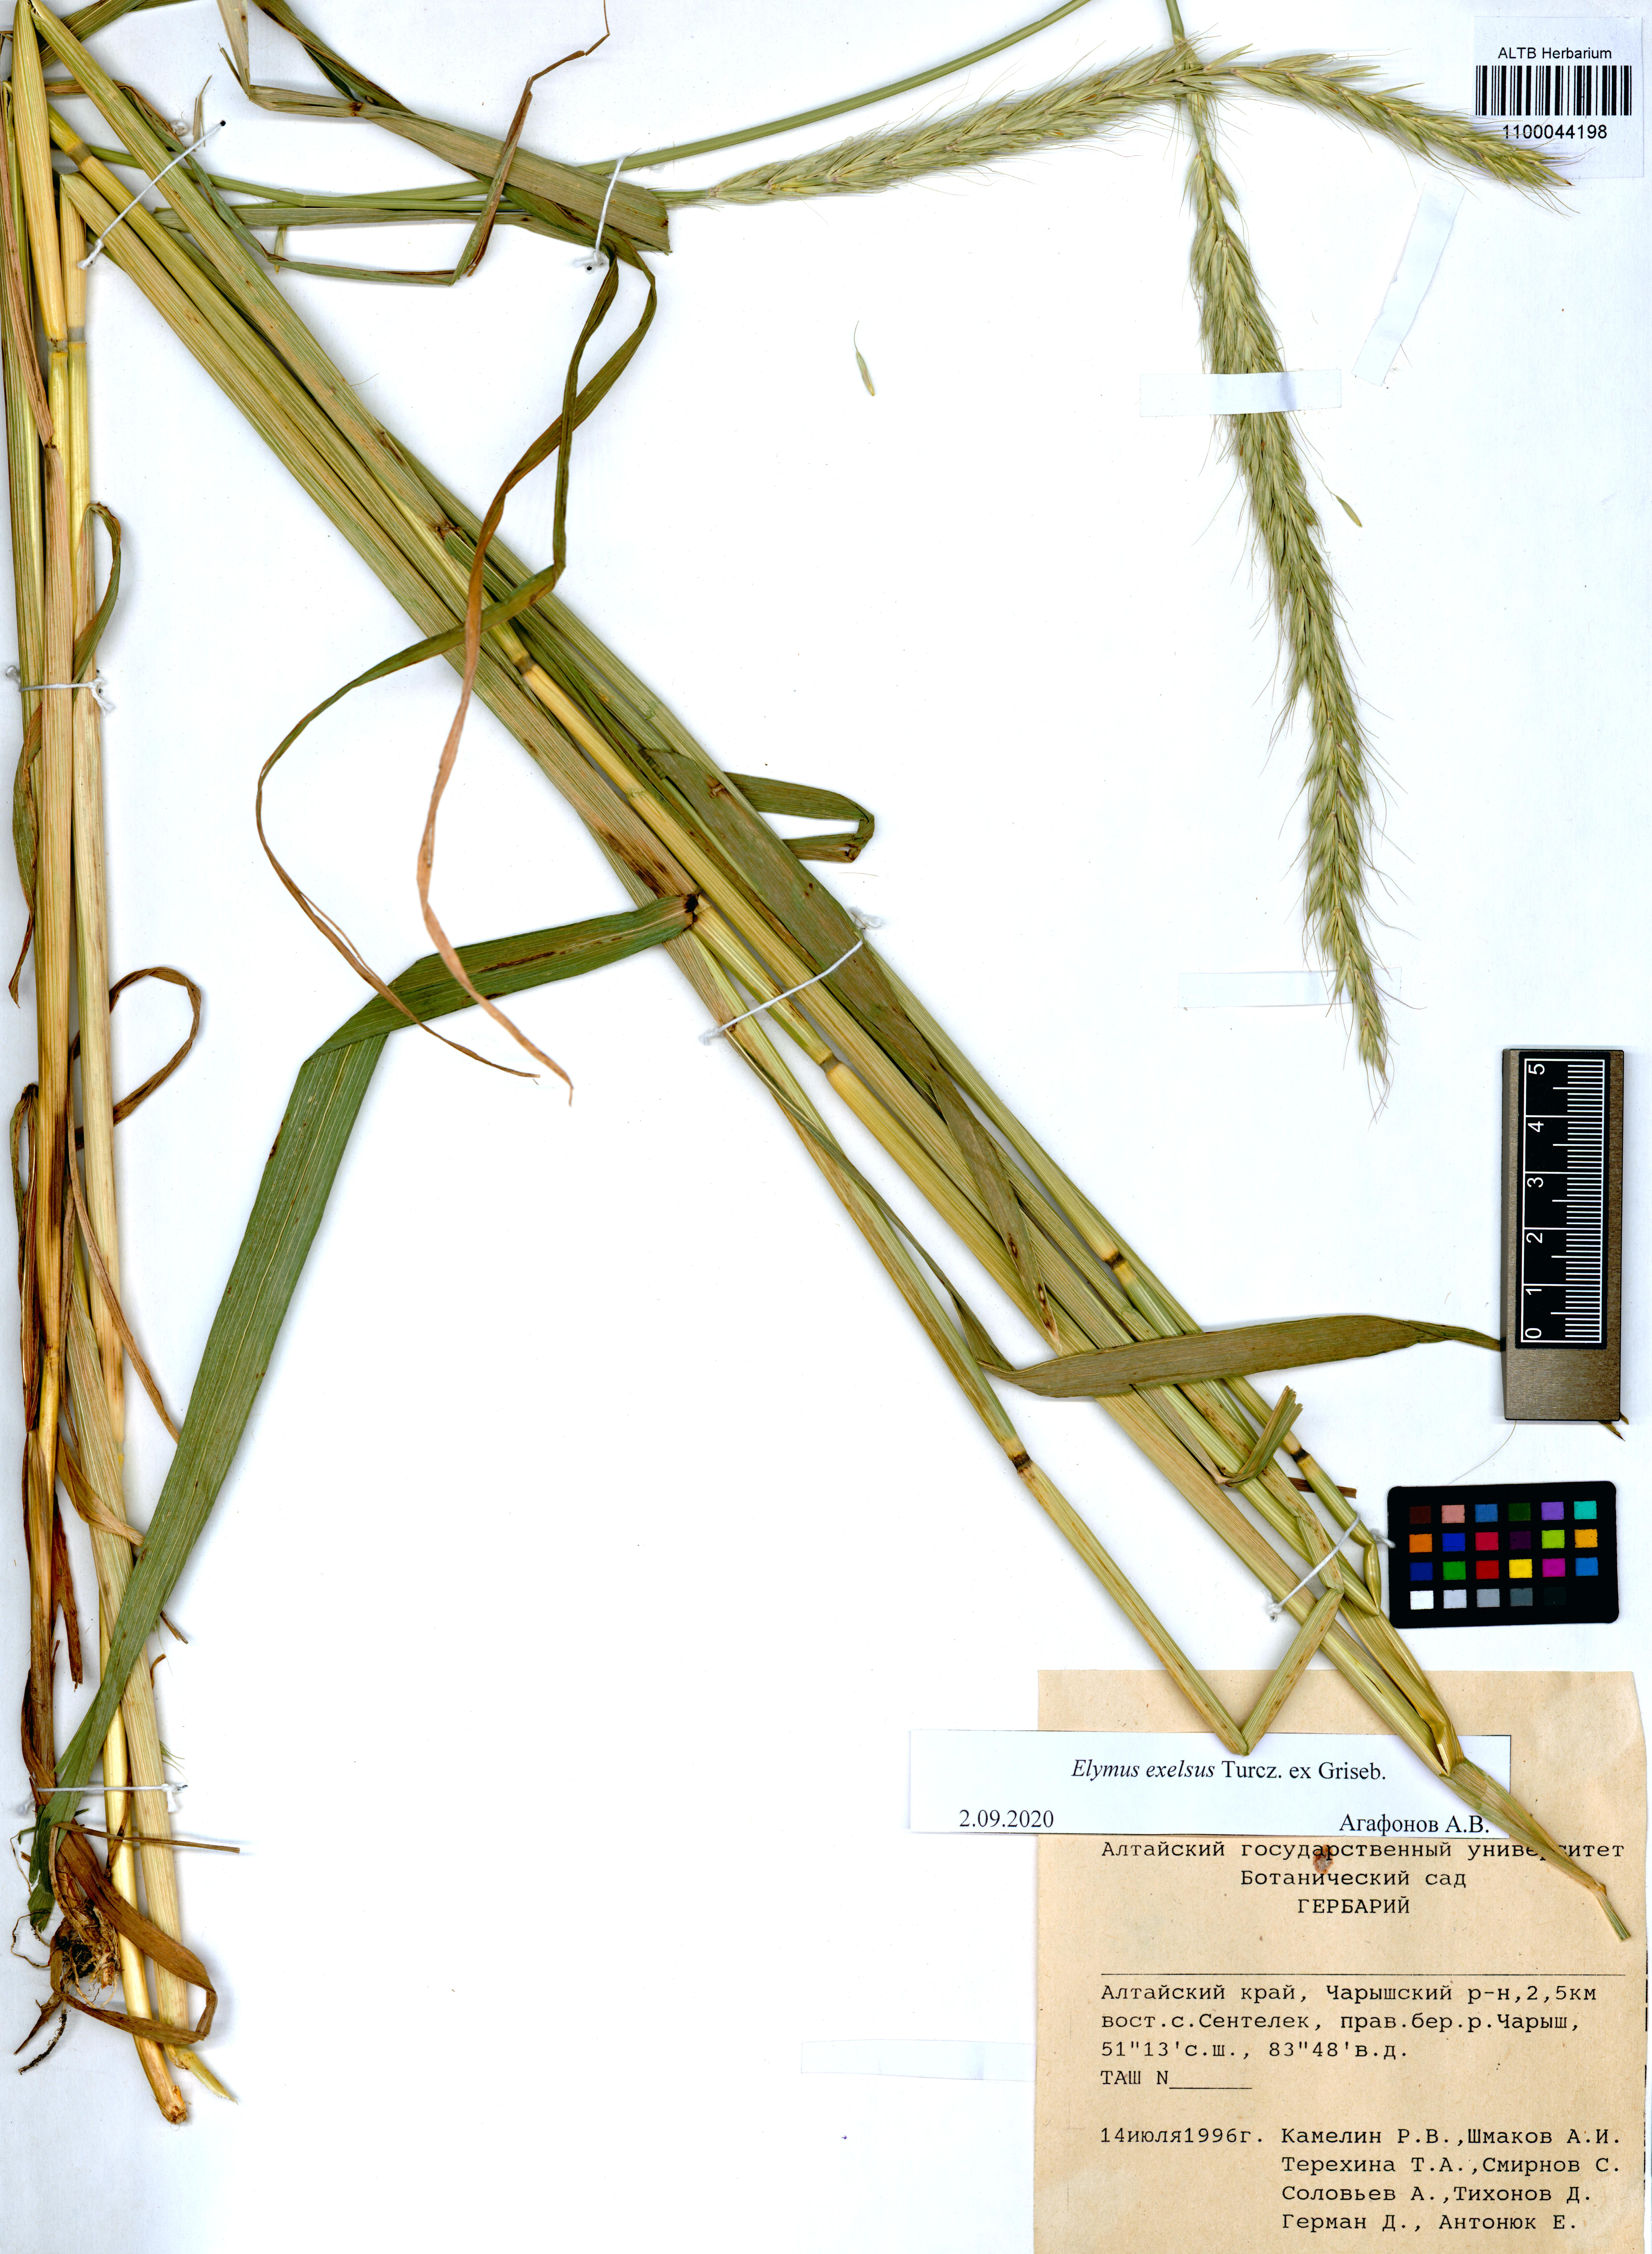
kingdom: Plantae
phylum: Tracheophyta
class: Liliopsida
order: Poales
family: Poaceae
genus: Elymus
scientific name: Elymus dahuricus
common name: Dahurian wild rye
